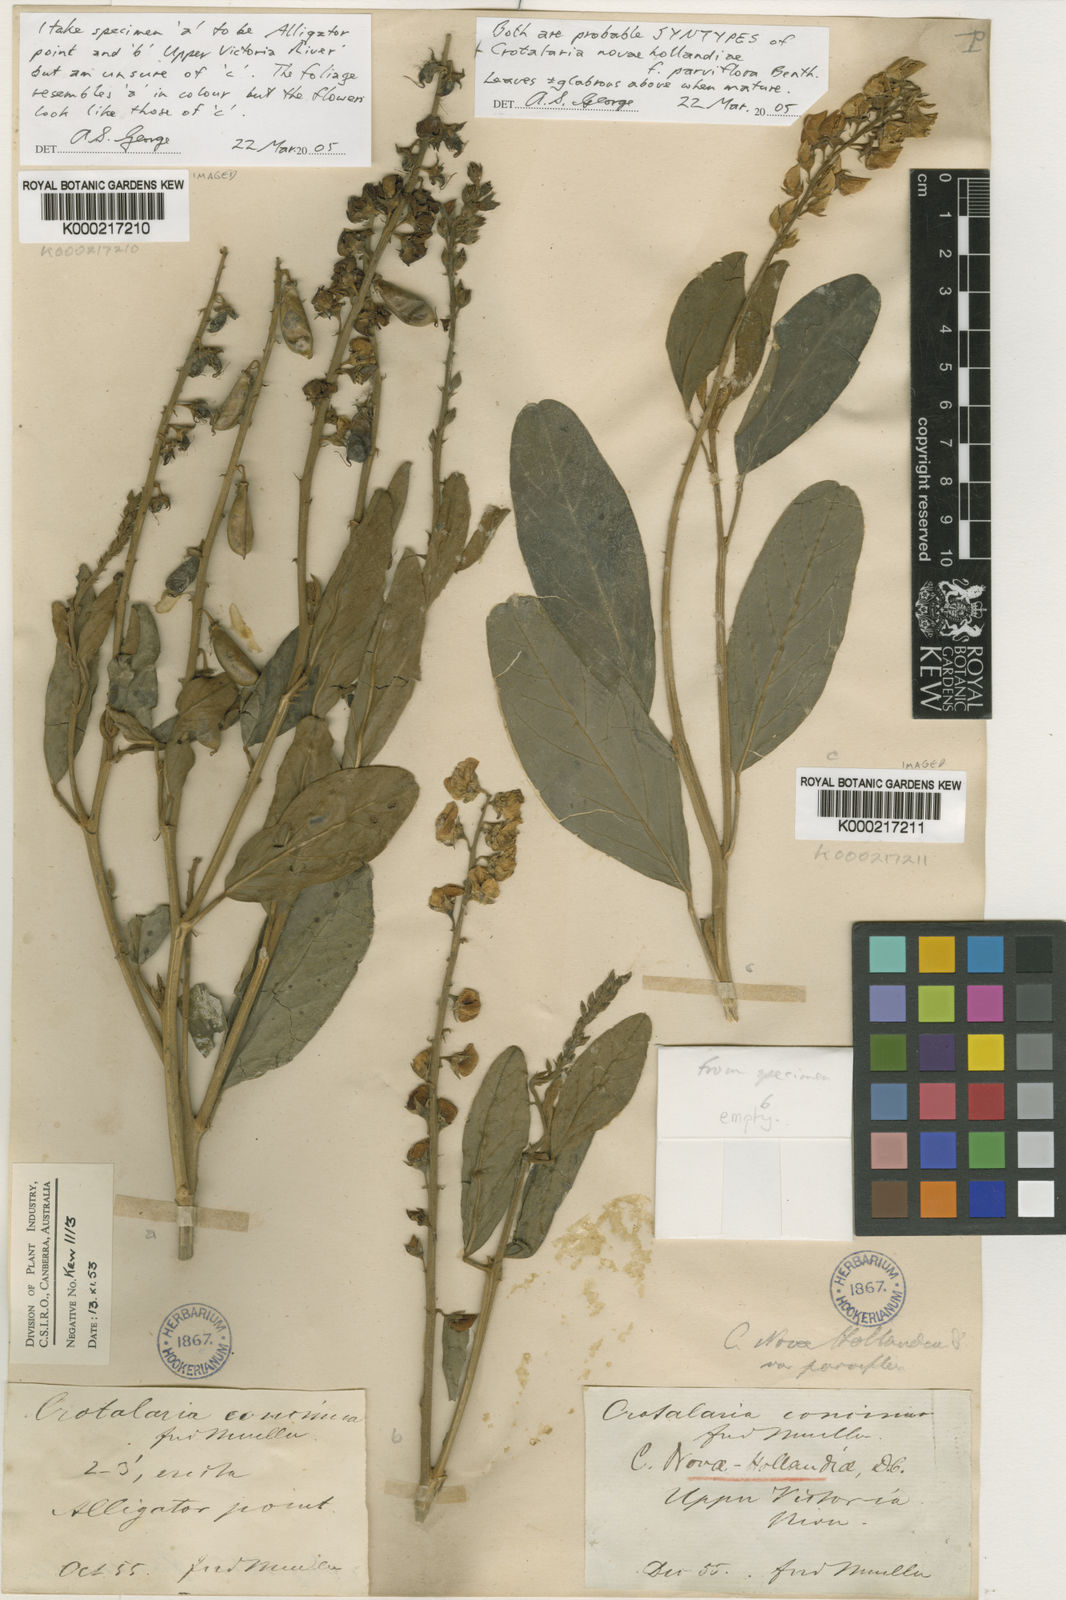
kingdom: Plantae
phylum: Tracheophyta
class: Magnoliopsida
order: Fabales
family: Fabaceae
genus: Crotalaria
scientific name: Crotalaria novae-hollandiae
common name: New holland rattlepod
